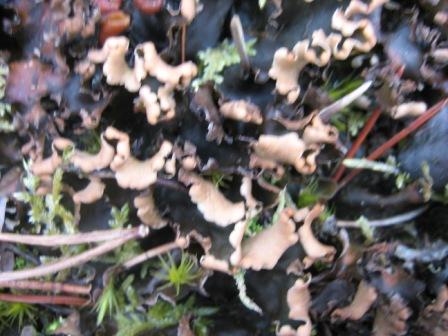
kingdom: Fungi
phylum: Ascomycota
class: Lecanoromycetes
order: Peltigerales
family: Peltigeraceae
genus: Peltigera
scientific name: Peltigera hymenina
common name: hinde-skjoldlav
